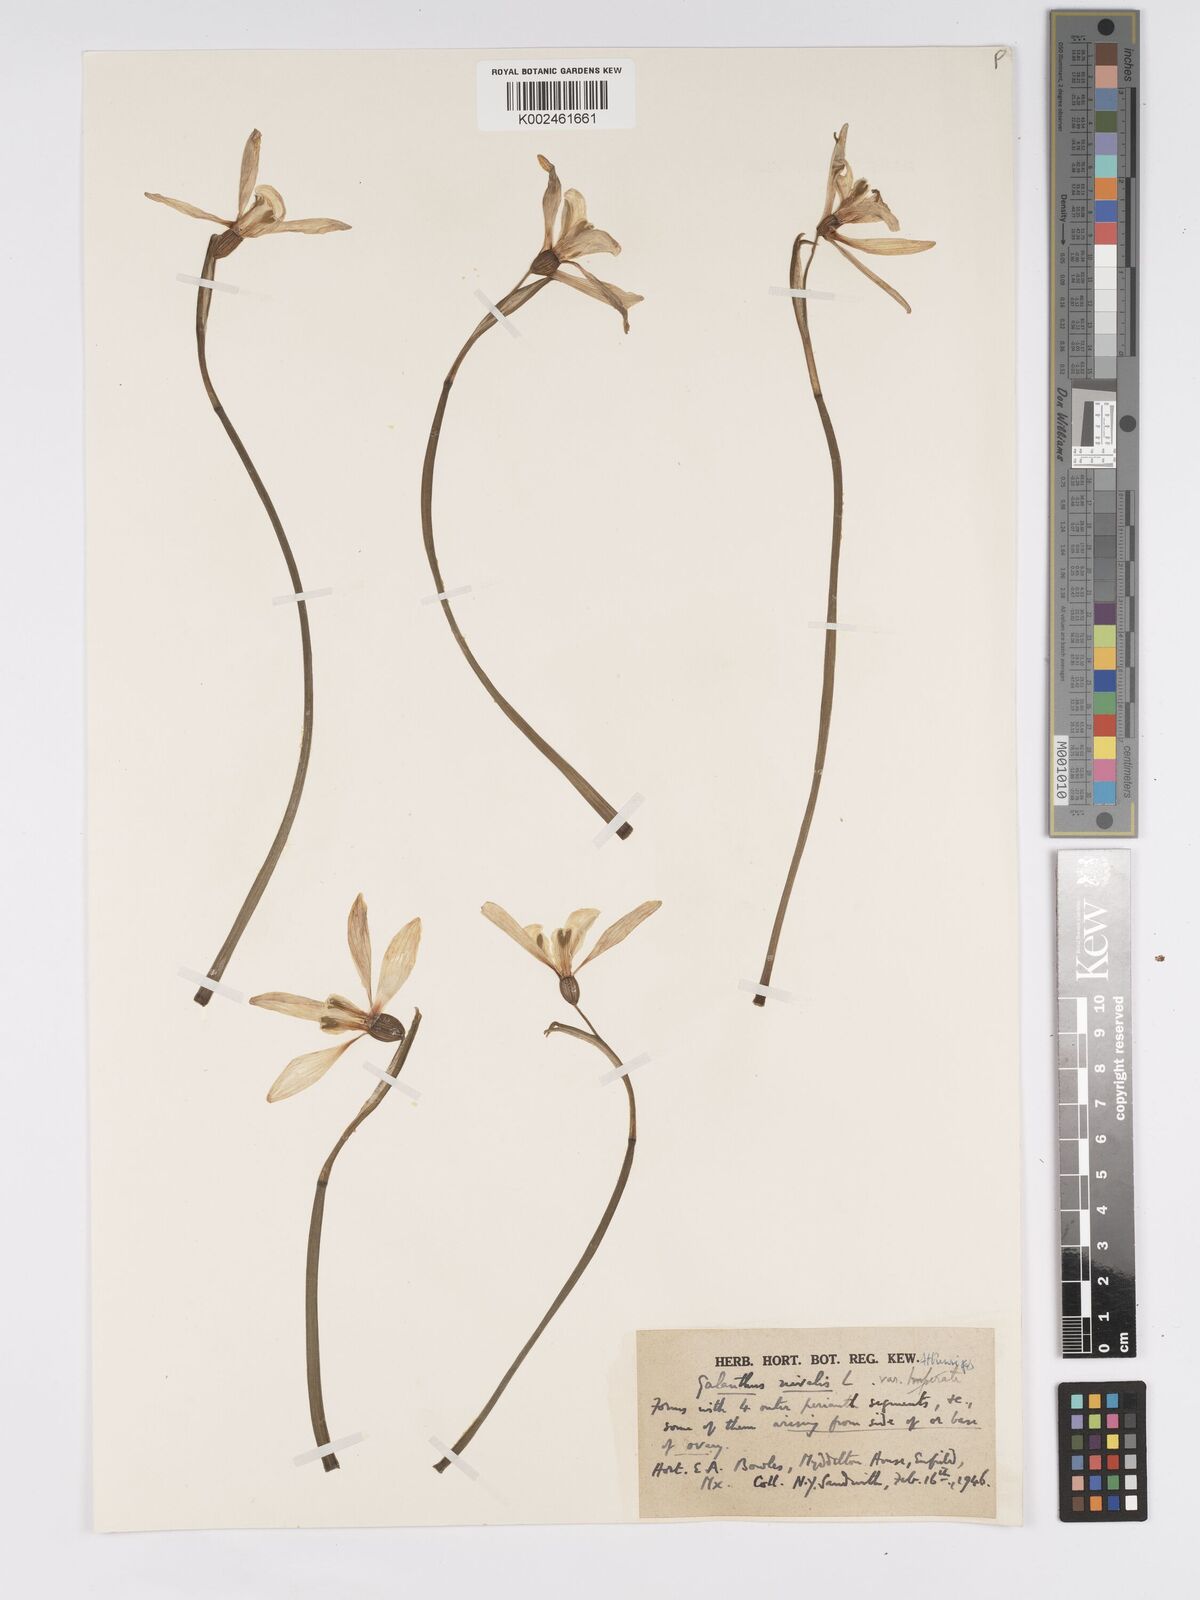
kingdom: Plantae
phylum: Tracheophyta
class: Liliopsida
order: Asparagales
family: Amaryllidaceae
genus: Galanthus
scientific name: Galanthus
